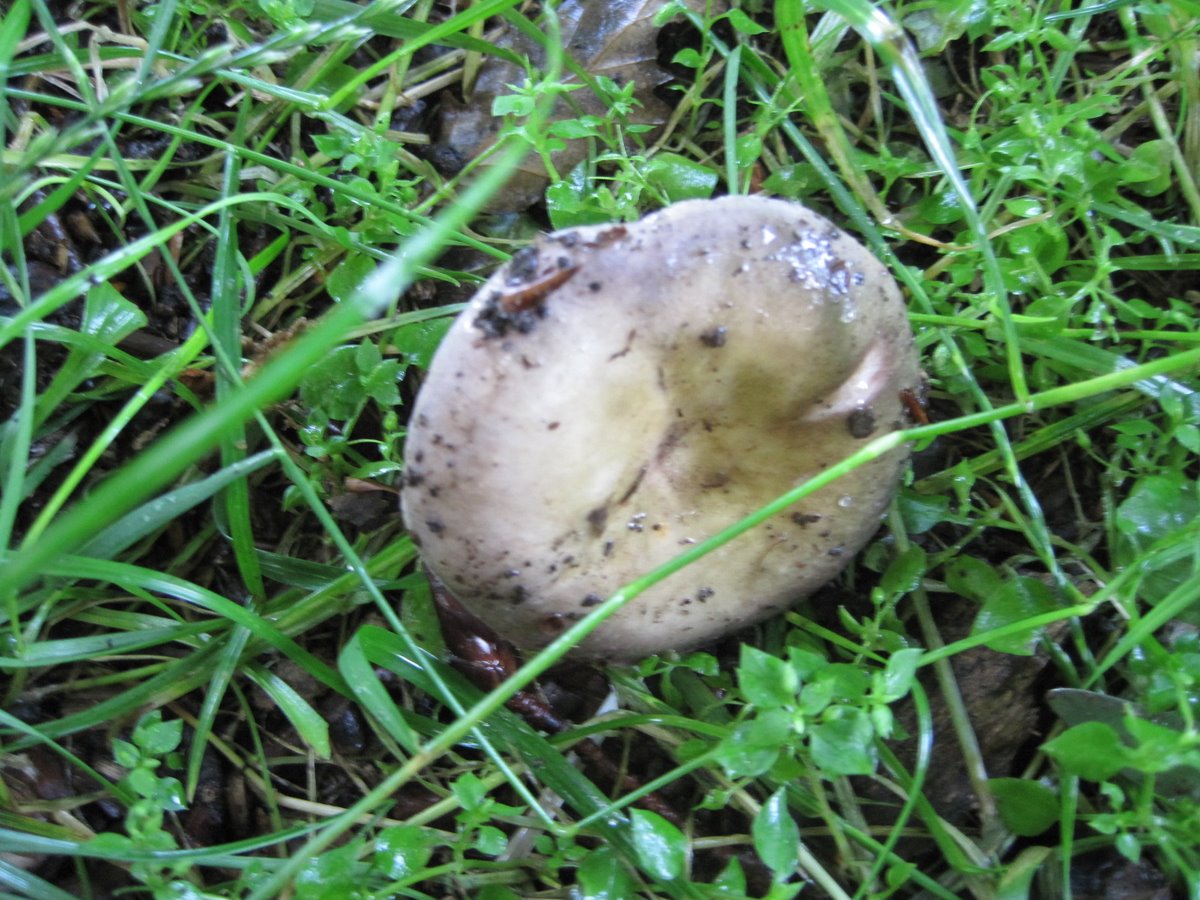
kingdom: Fungi
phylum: Basidiomycota
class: Agaricomycetes
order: Russulales
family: Russulaceae
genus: Russula
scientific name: Russula ionochlora
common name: violetgrøn skørhat
